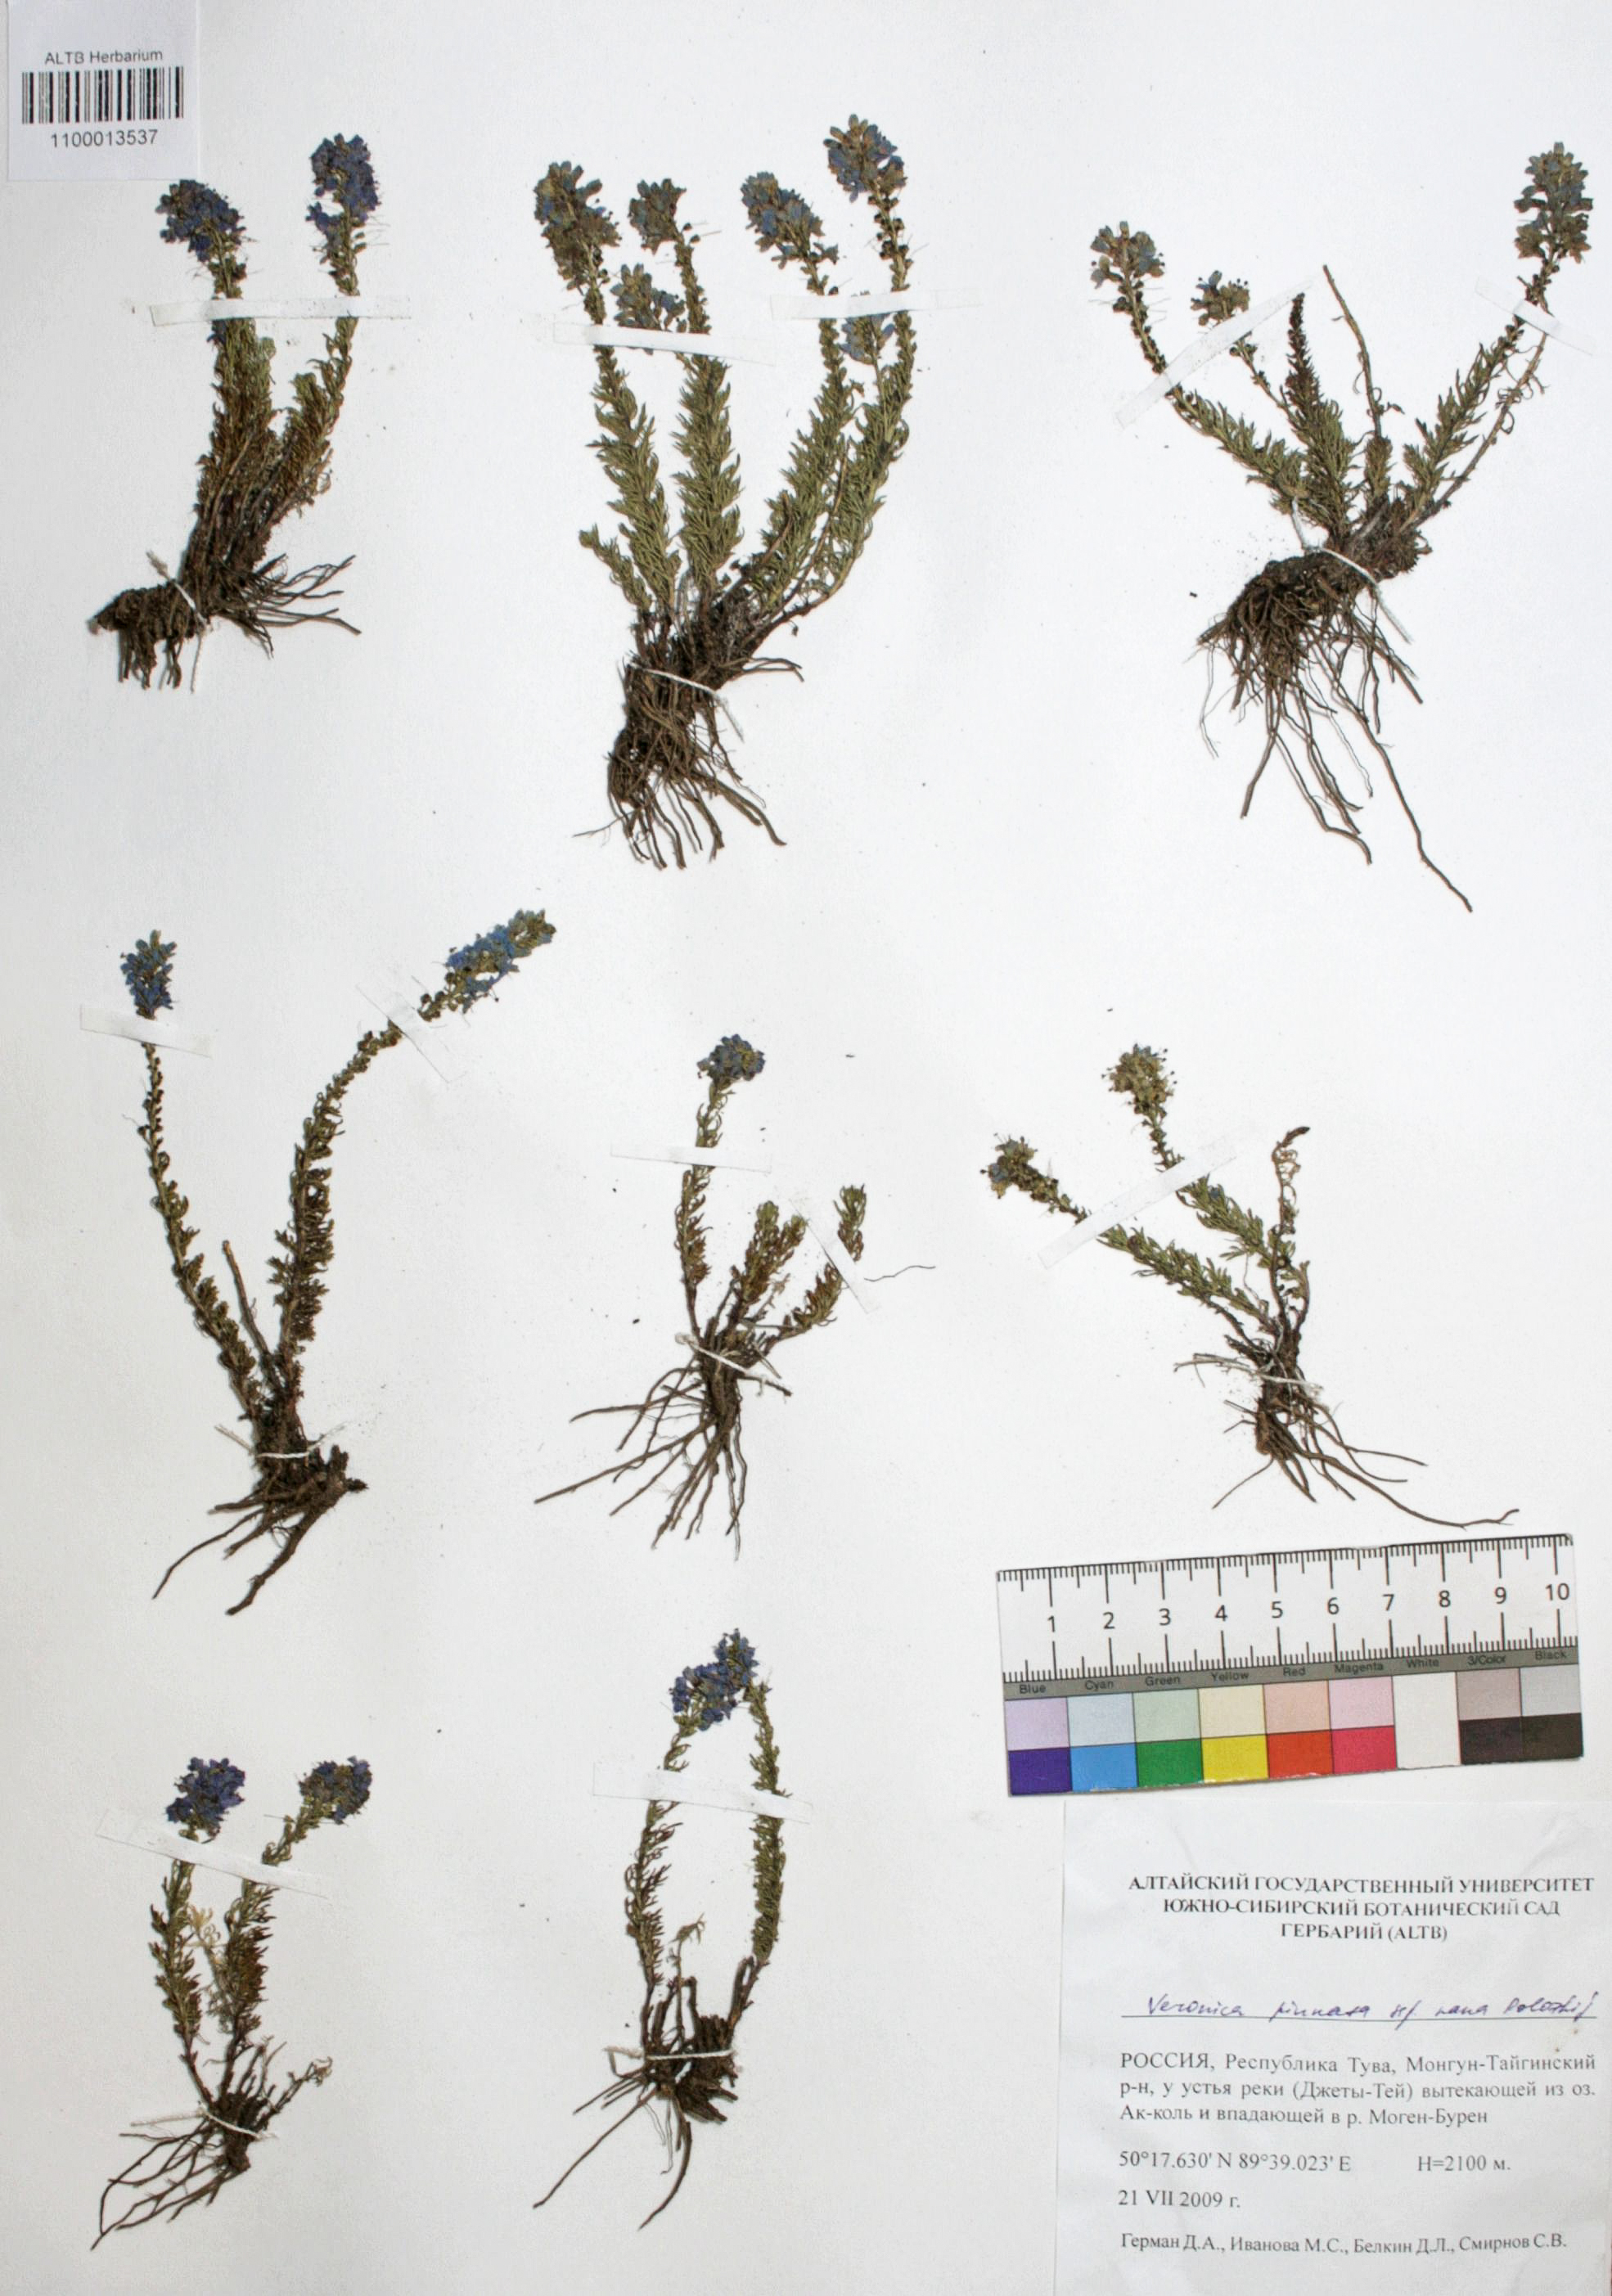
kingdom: Plantae
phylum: Tracheophyta
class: Magnoliopsida
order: Lamiales
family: Plantaginaceae
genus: Veronica
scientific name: Veronica pinnata
